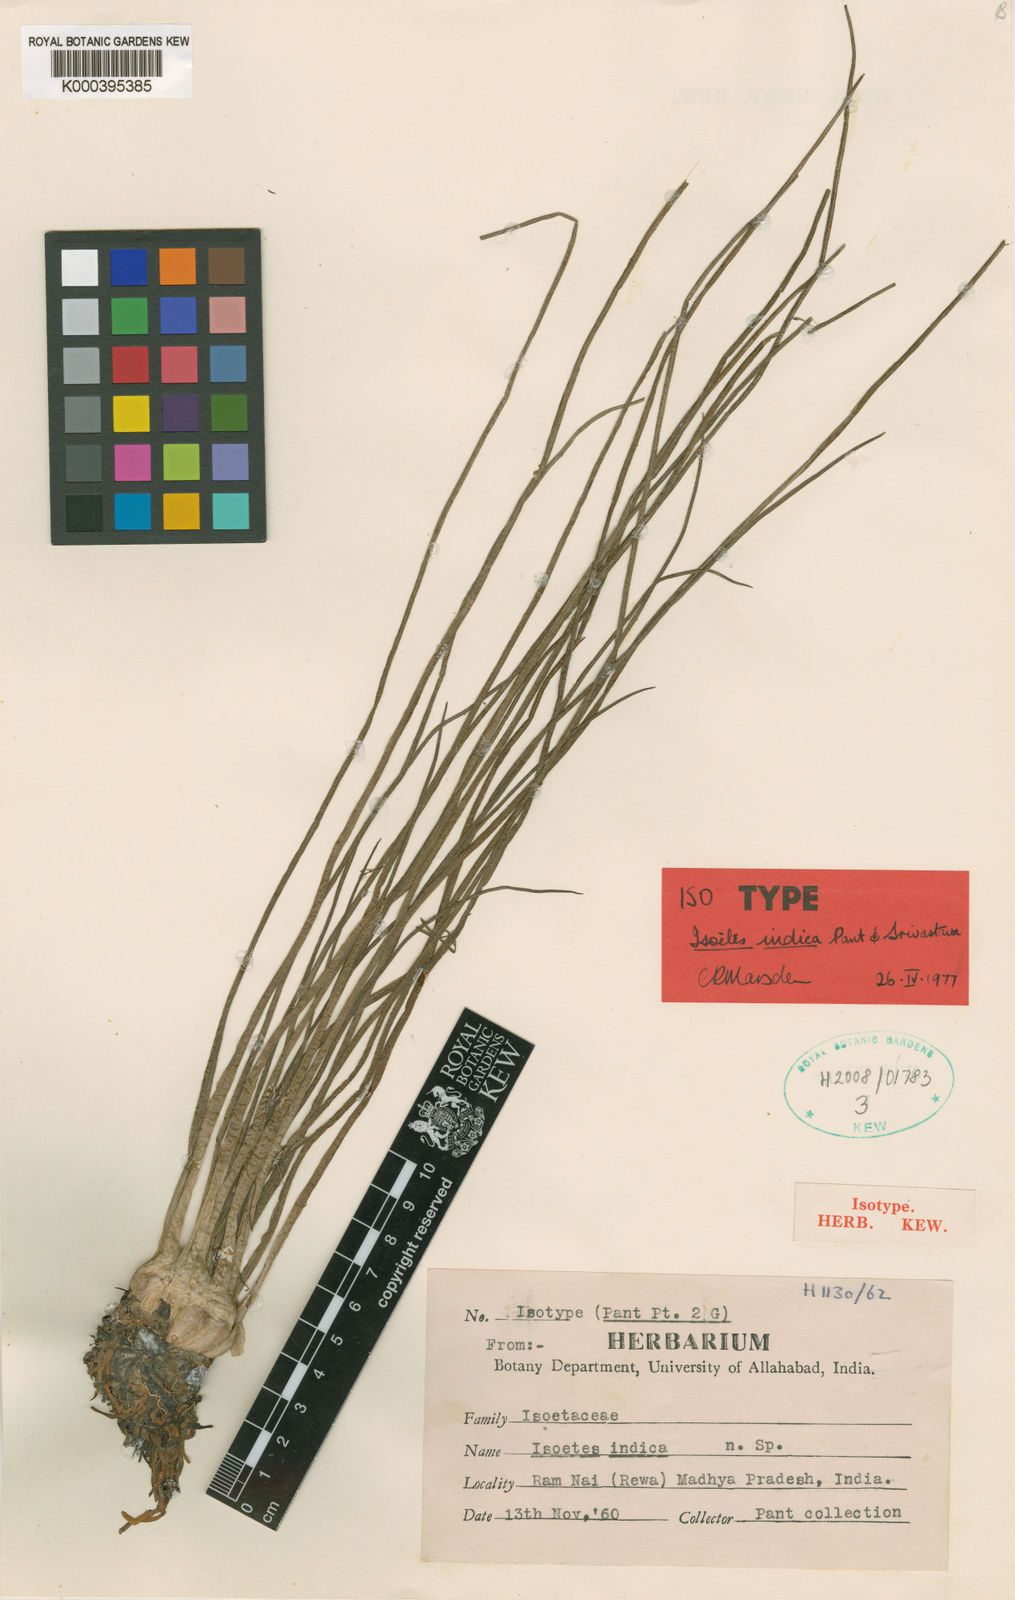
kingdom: Plantae
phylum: Tracheophyta
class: Lycopodiopsida
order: Isoetales
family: Isoetaceae
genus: Isoetes
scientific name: Isoetes coromandelina
